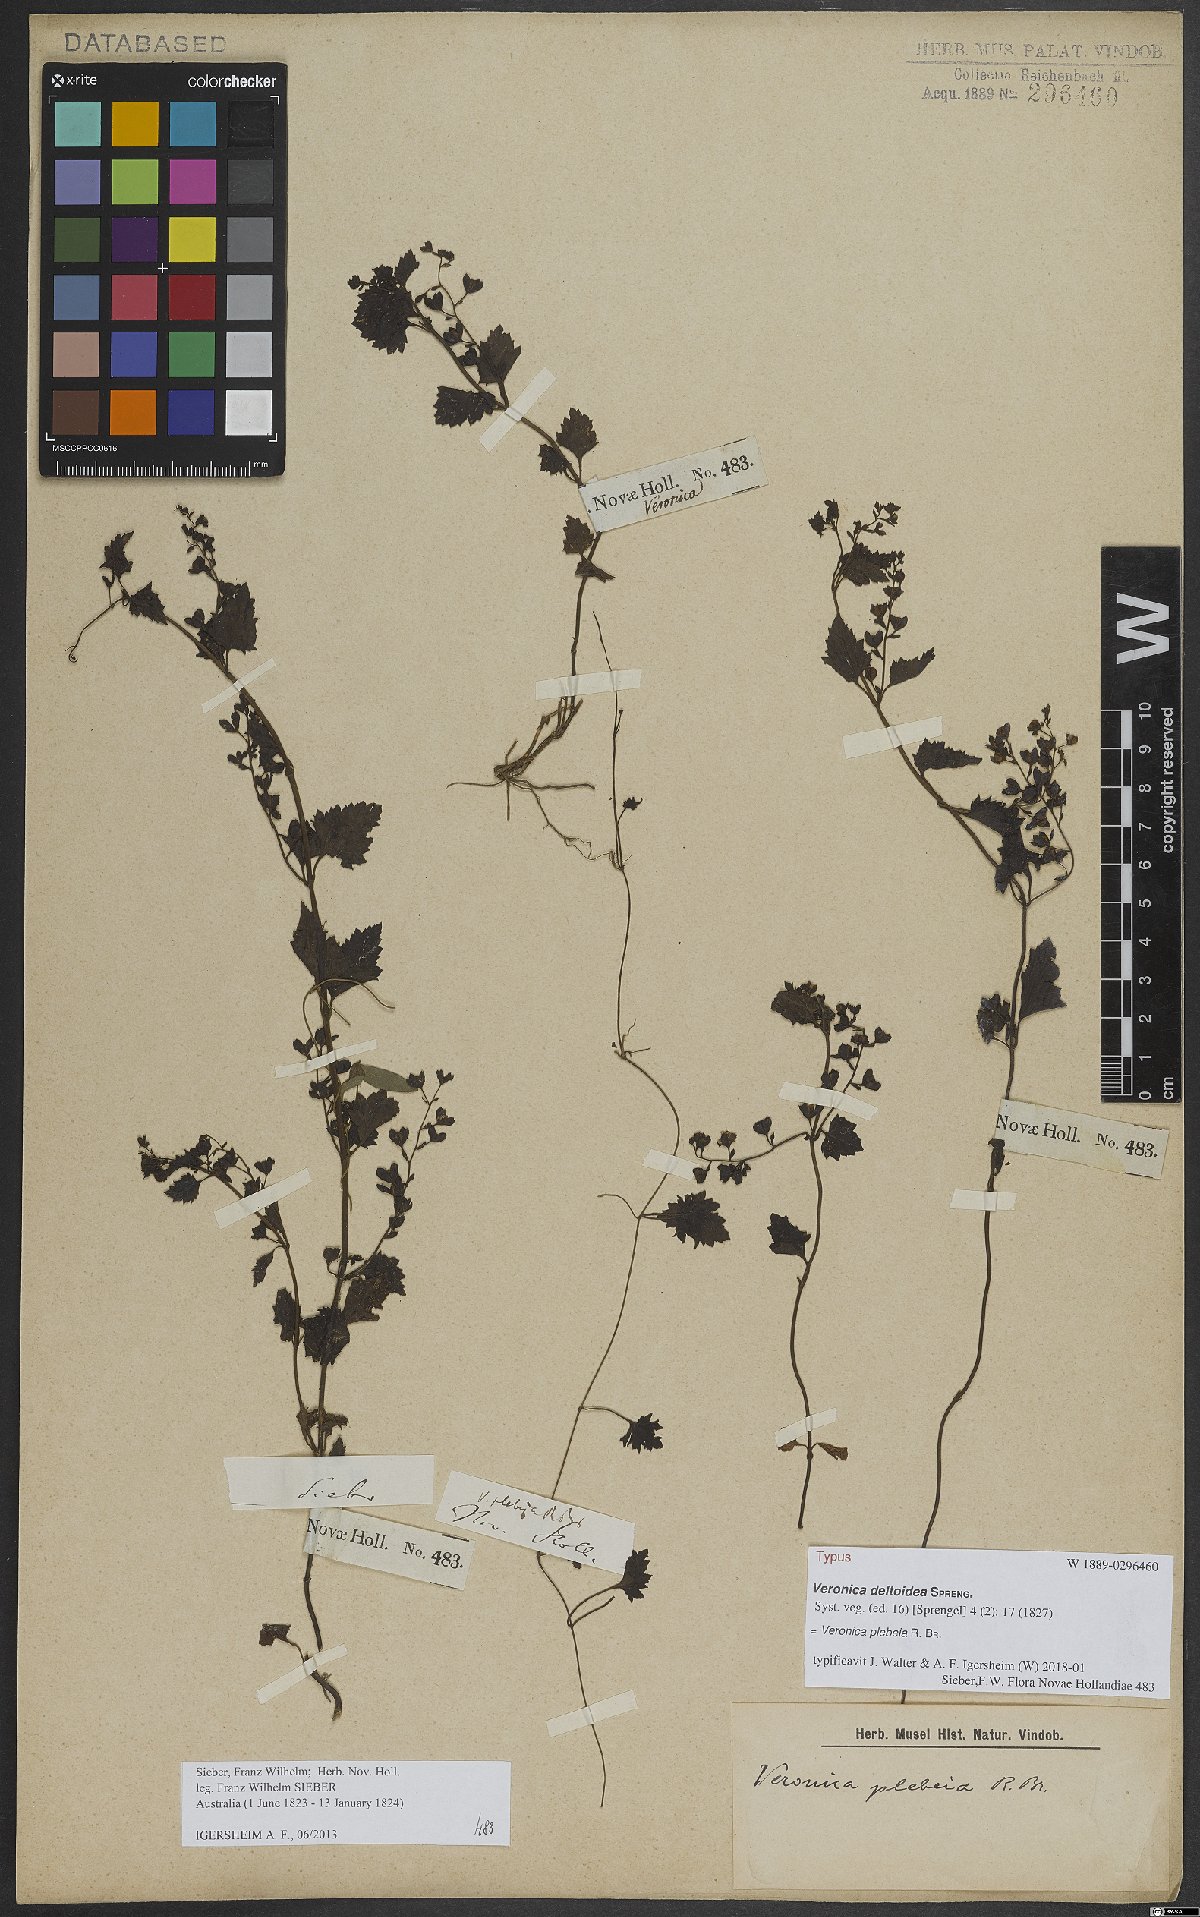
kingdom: Plantae
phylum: Tracheophyta
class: Magnoliopsida
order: Lamiales
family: Plantaginaceae
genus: Veronica
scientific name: Veronica plebeia
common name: Speedwell
